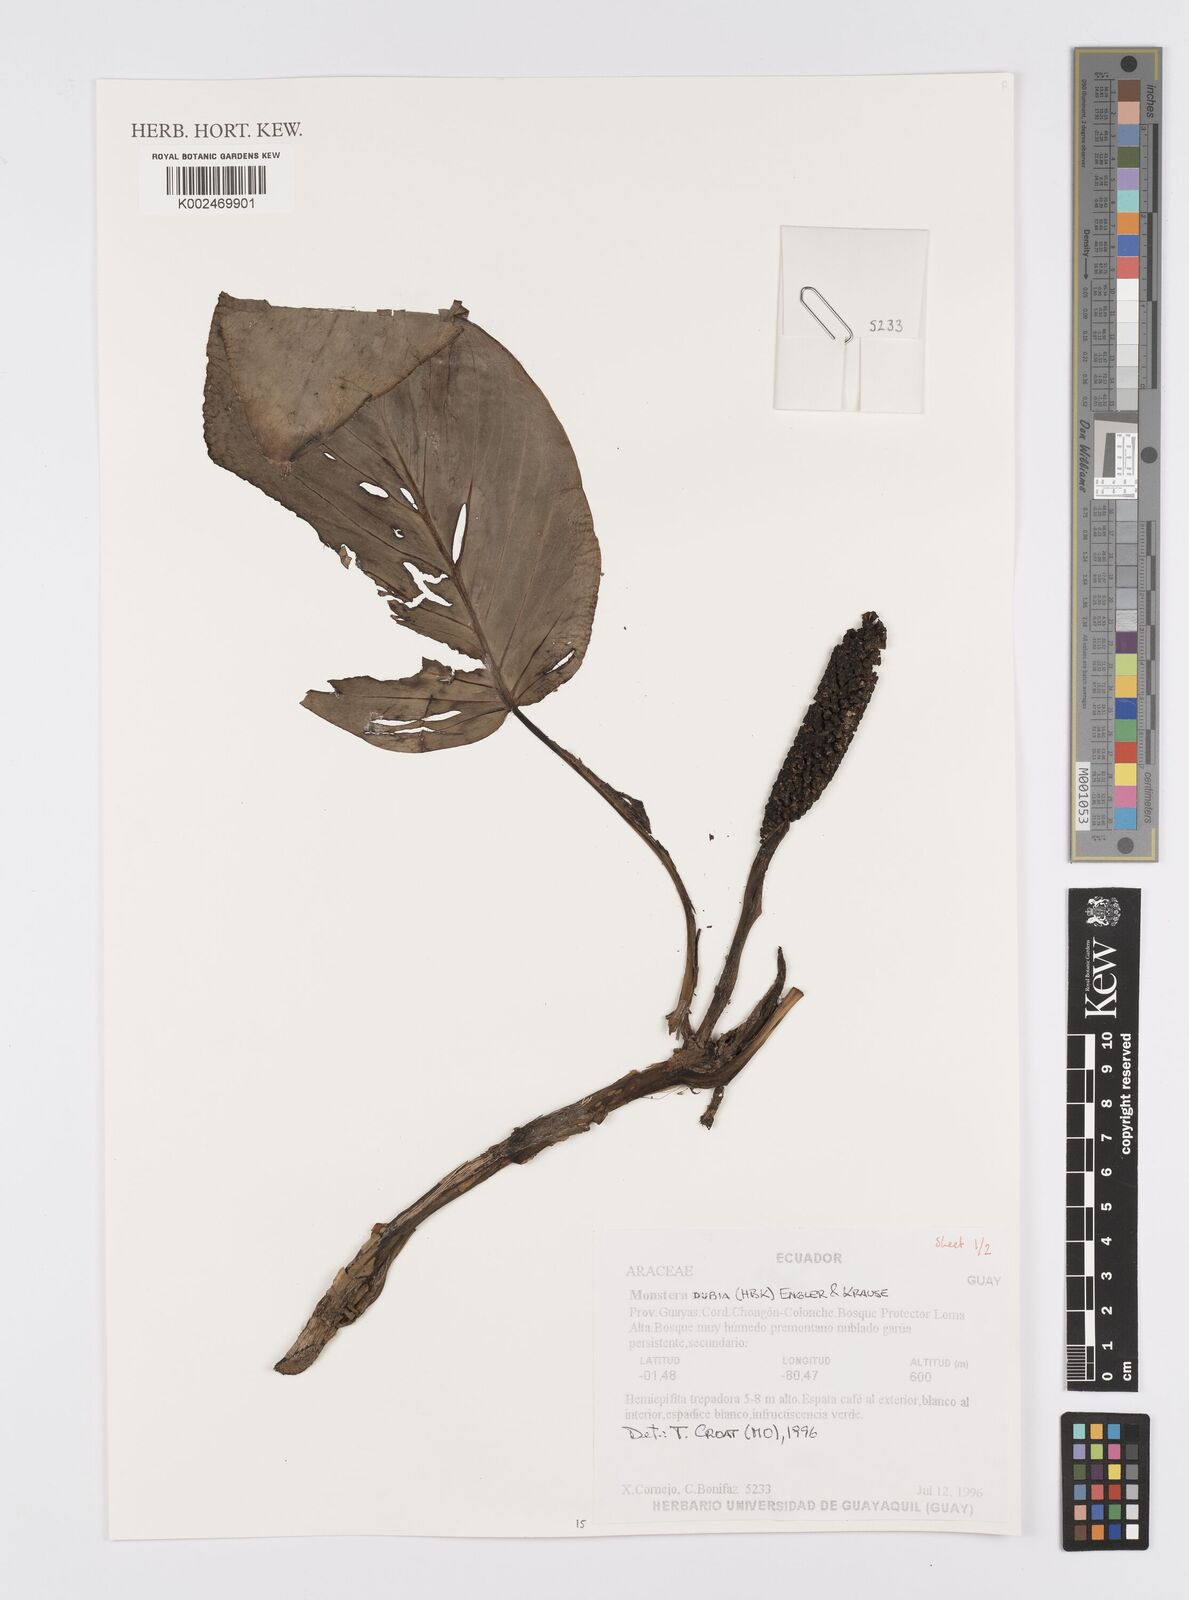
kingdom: Plantae
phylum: Tracheophyta
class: Liliopsida
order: Alismatales
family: Araceae
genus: Monstera
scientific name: Monstera dubia
